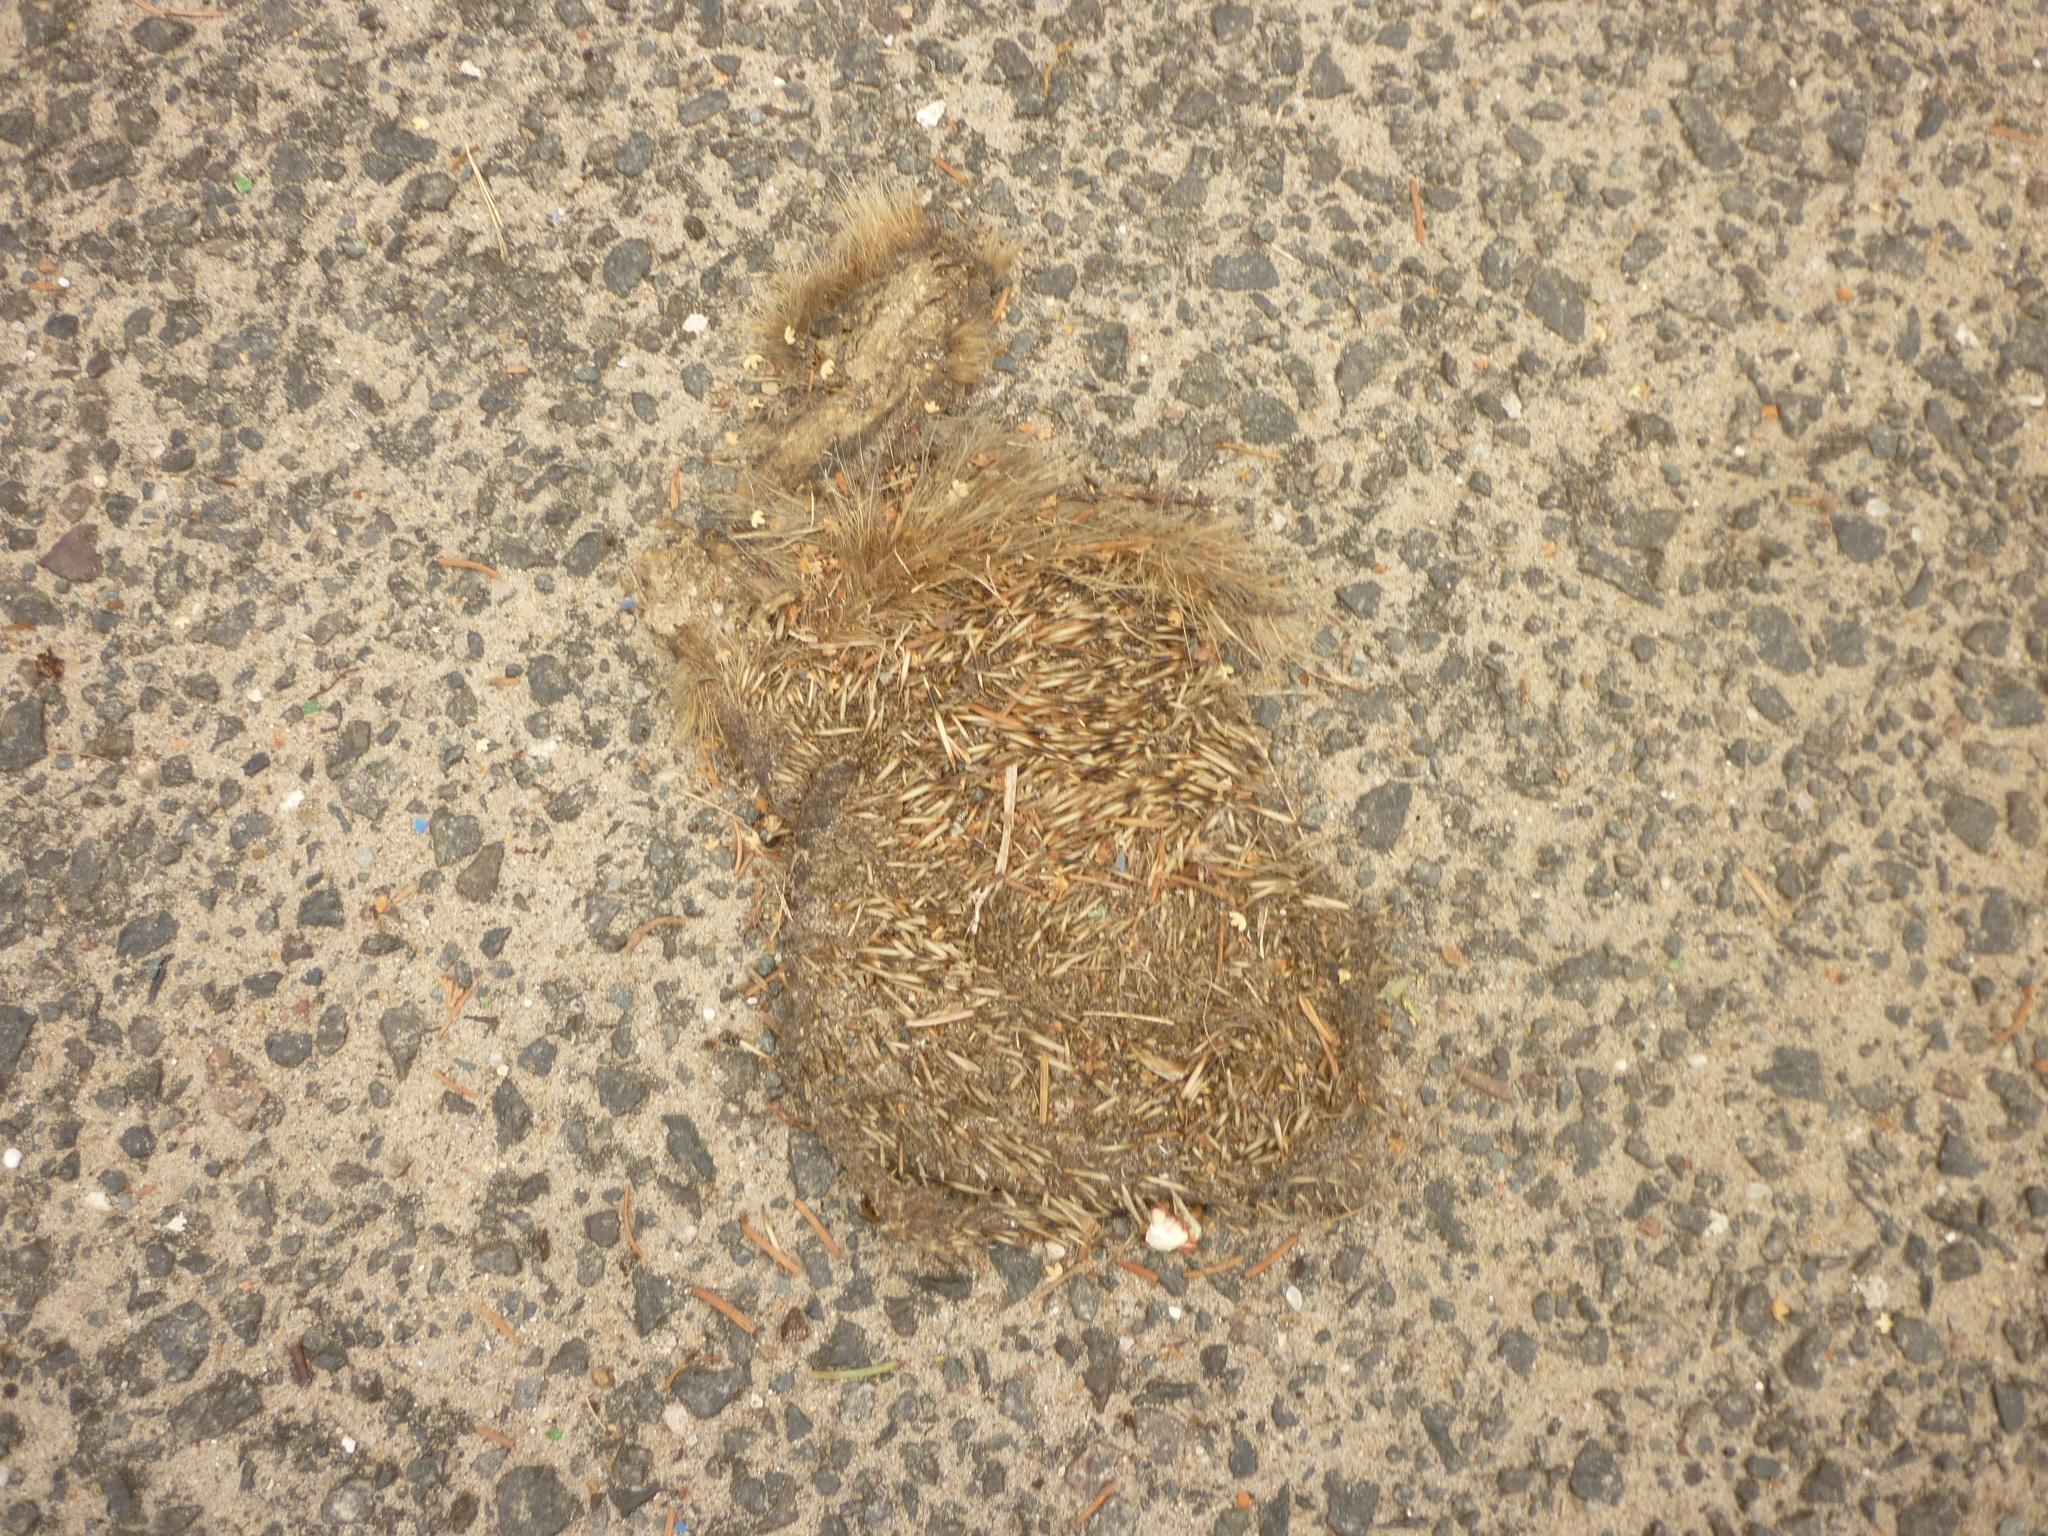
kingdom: Animalia
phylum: Chordata
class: Mammalia
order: Erinaceomorpha
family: Erinaceidae
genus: Erinaceus
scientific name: Erinaceus
